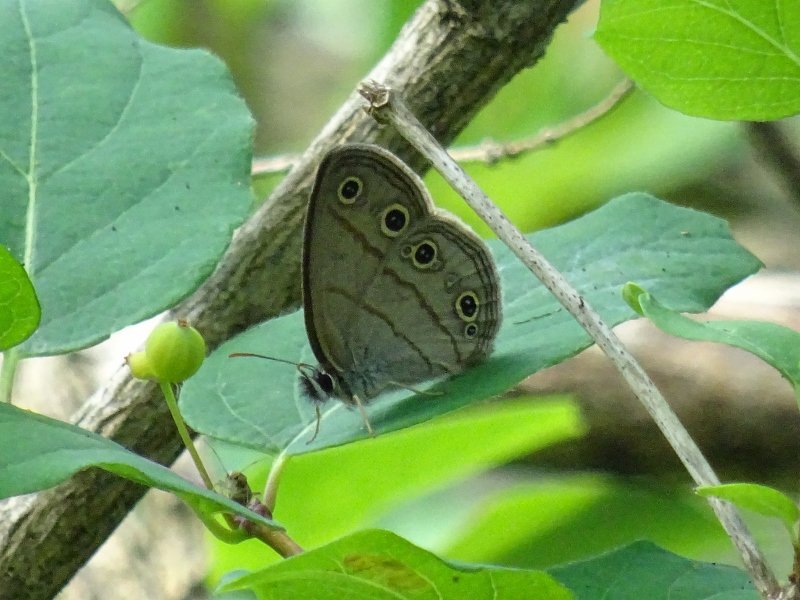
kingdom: Animalia
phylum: Arthropoda
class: Insecta
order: Lepidoptera
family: Nymphalidae
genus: Euptychia
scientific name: Euptychia cymela
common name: Little Wood Satyr
